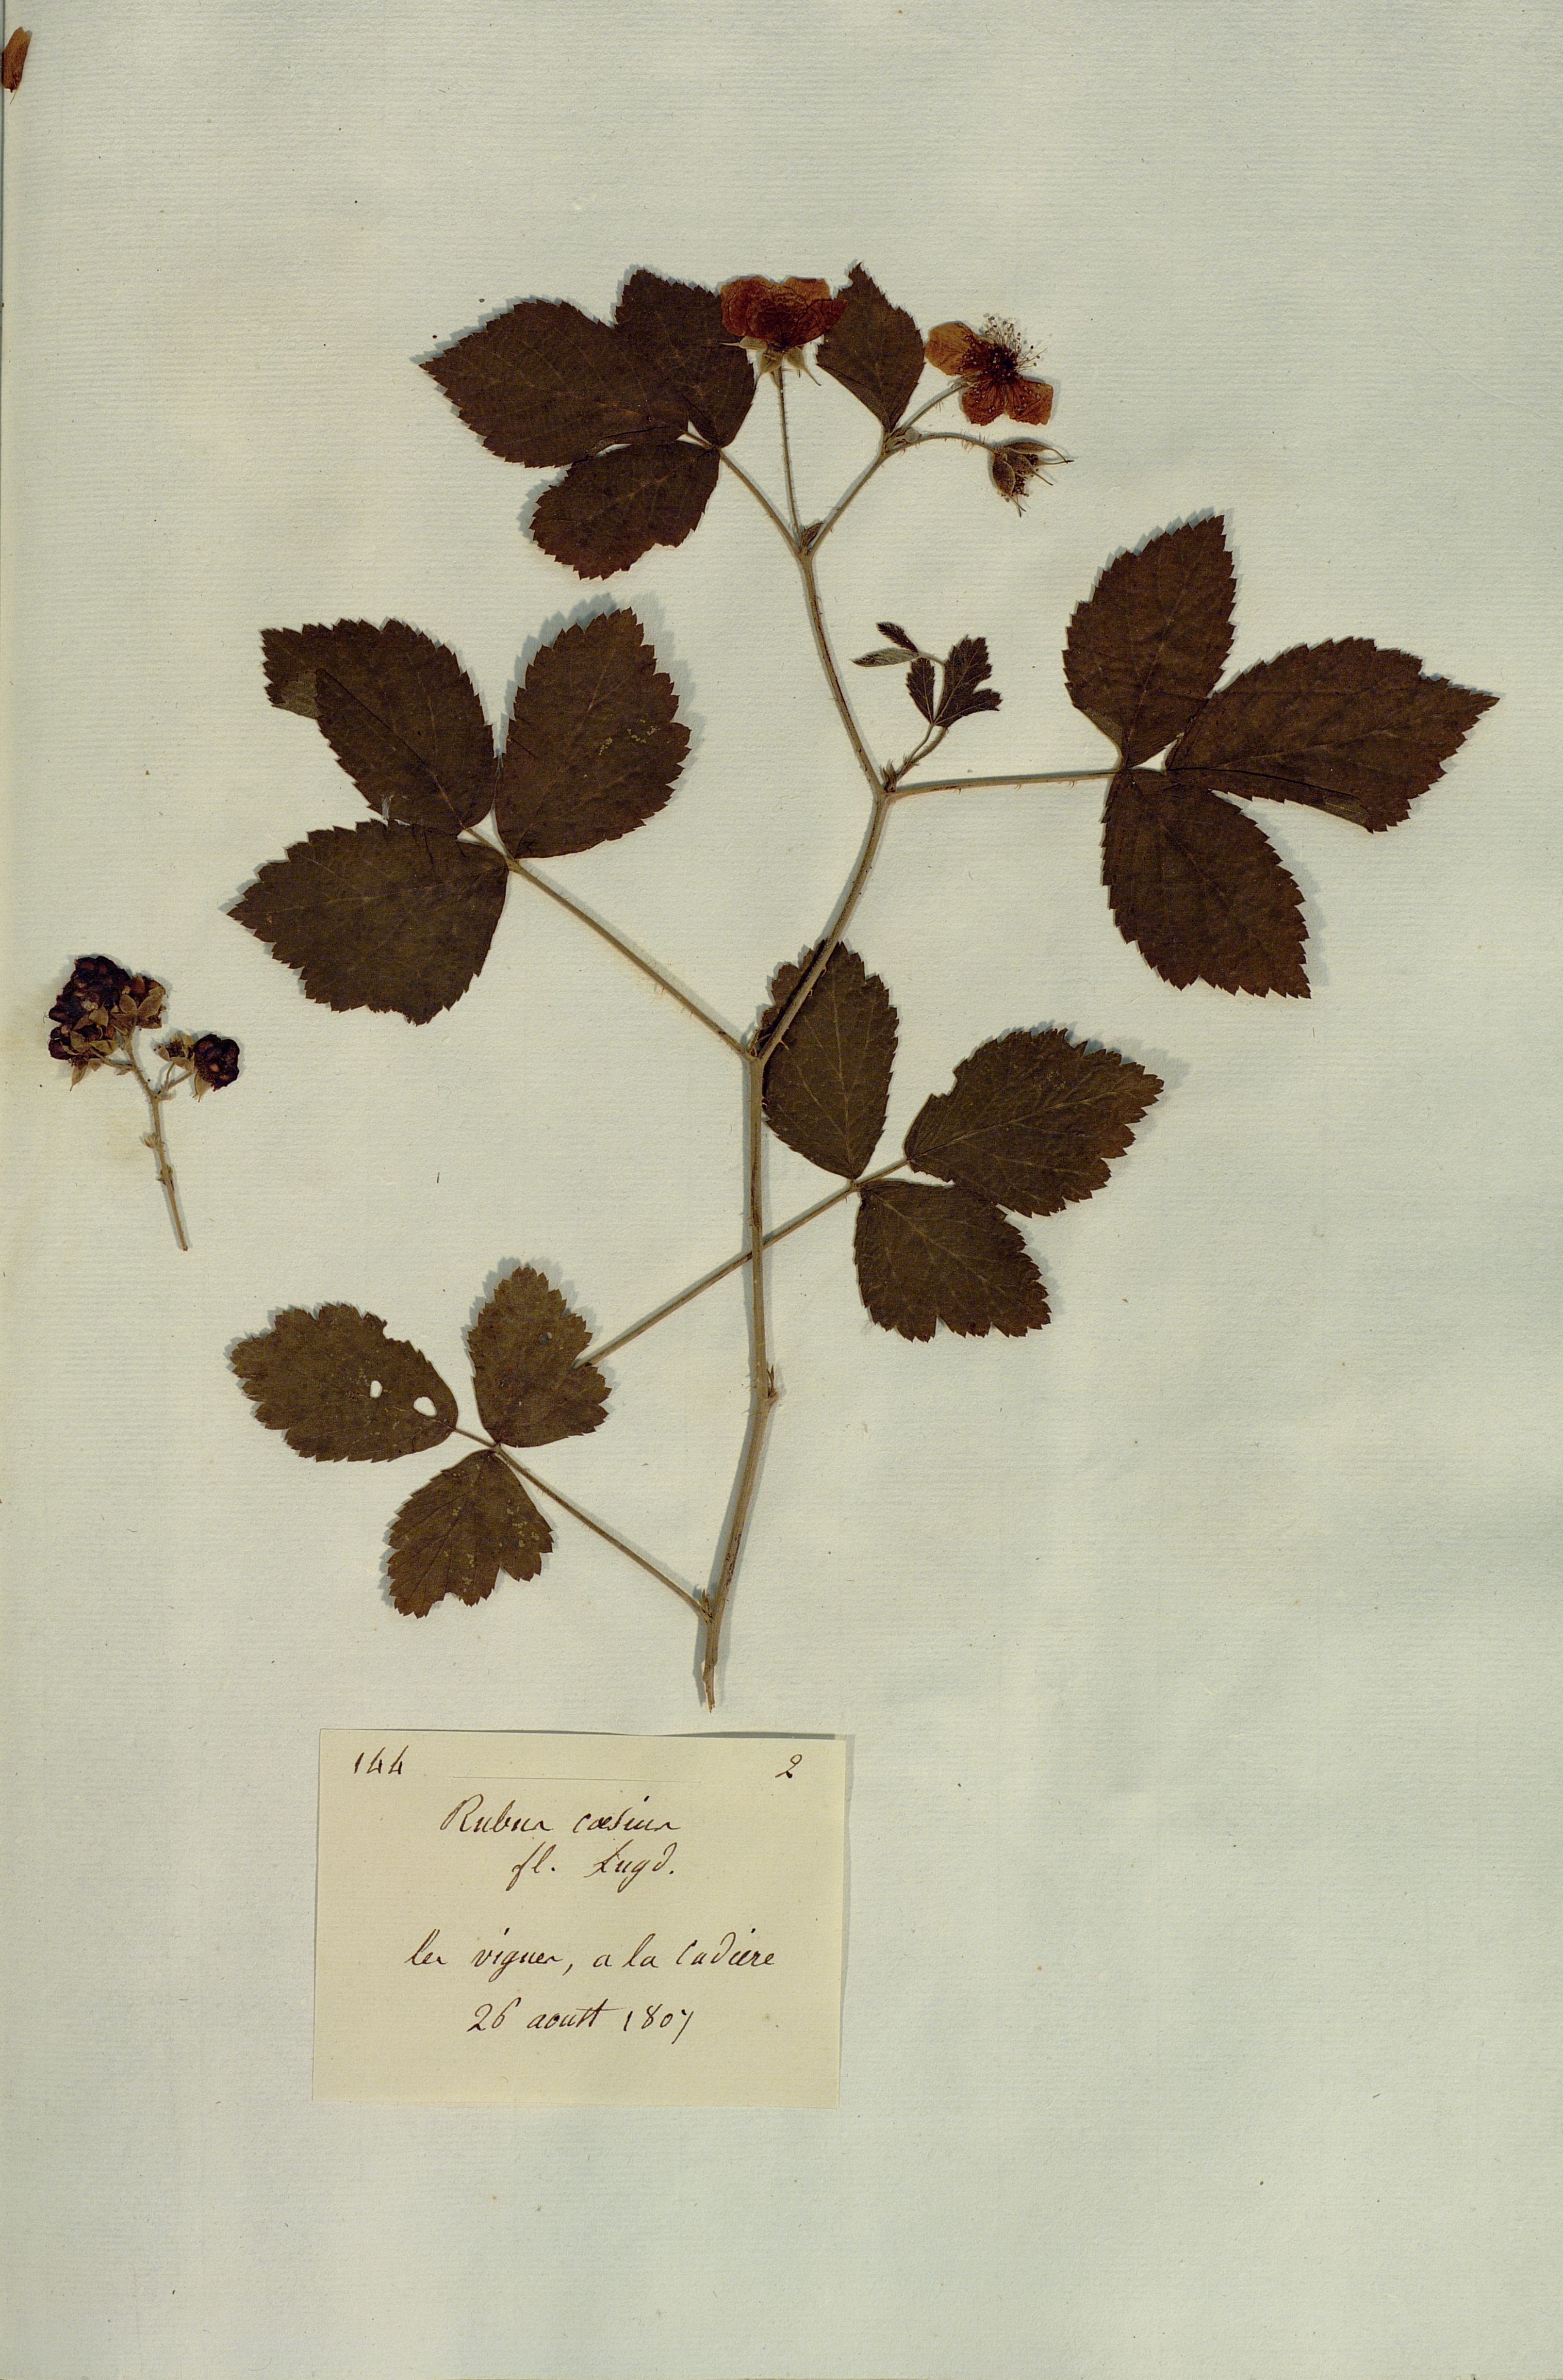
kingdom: Plantae
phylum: Tracheophyta
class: Magnoliopsida
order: Rosales
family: Rosaceae
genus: Rubus
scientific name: Rubus caesius
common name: Dewberry
